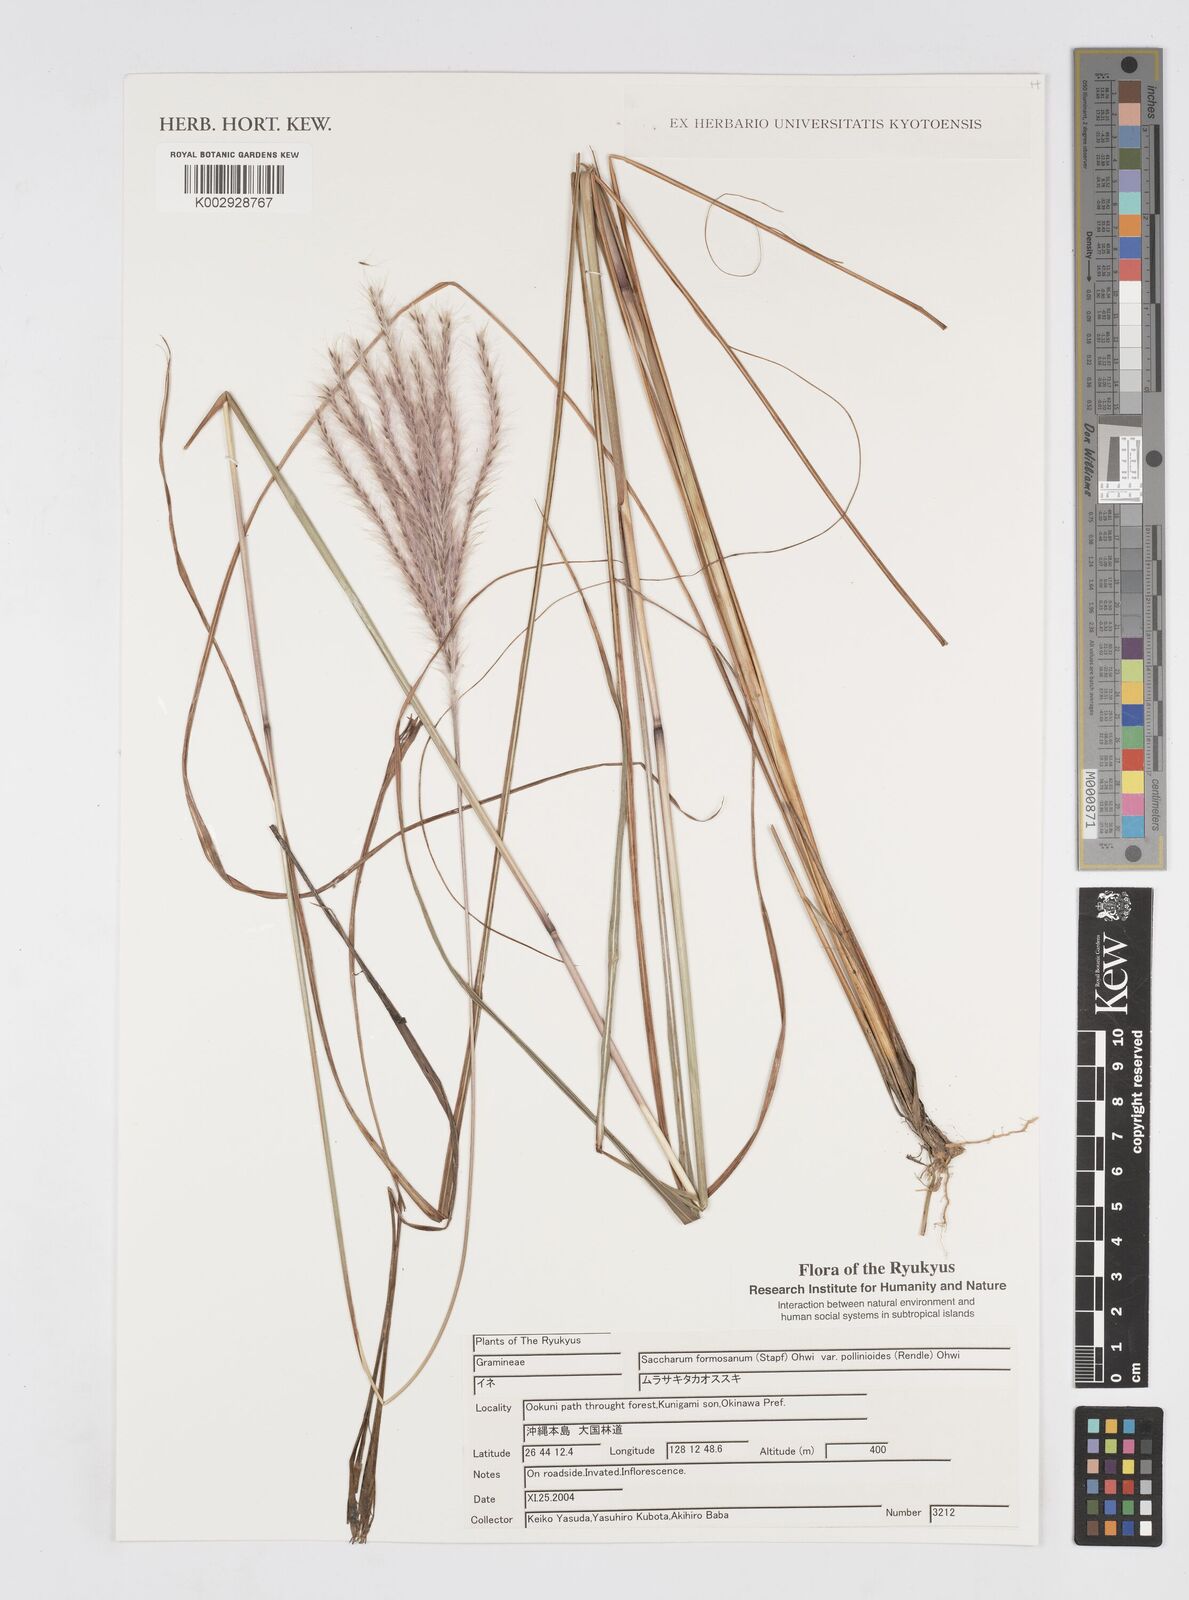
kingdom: Plantae
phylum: Tracheophyta
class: Liliopsida
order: Poales
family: Poaceae
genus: Saccharum
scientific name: Saccharum formosanum
